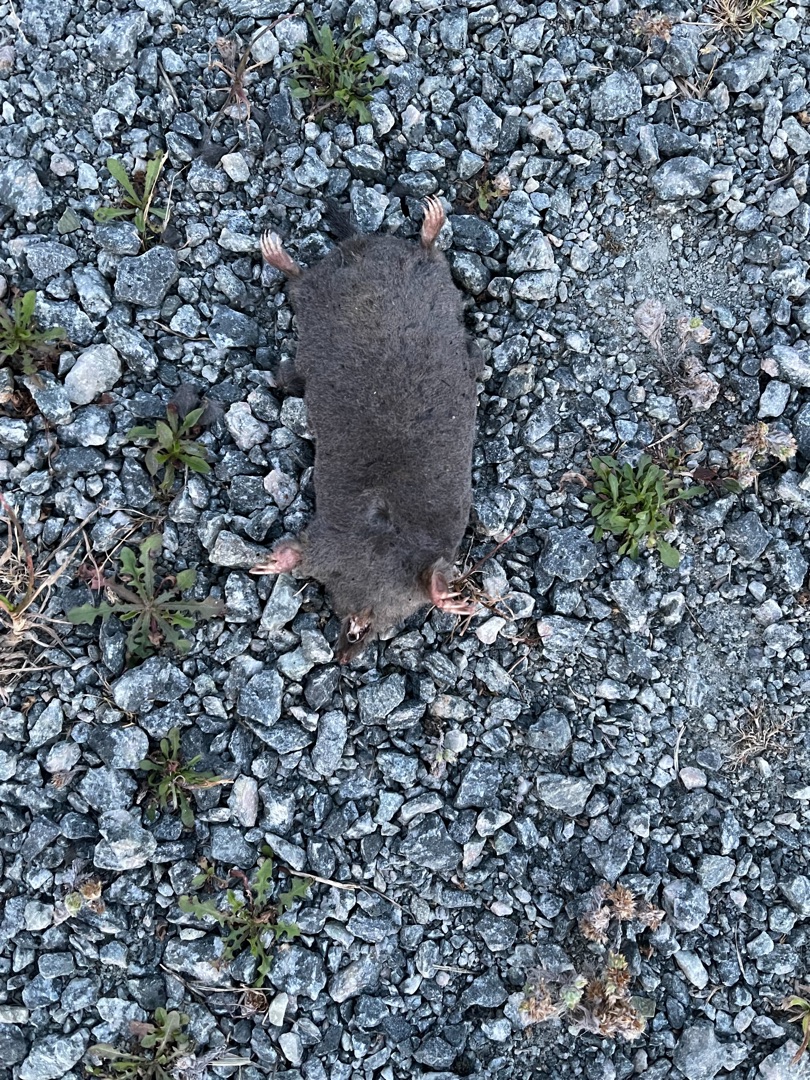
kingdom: Animalia
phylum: Chordata
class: Mammalia
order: Soricomorpha
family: Talpidae
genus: Talpa
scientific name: Talpa europaea
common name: Muldvarp
